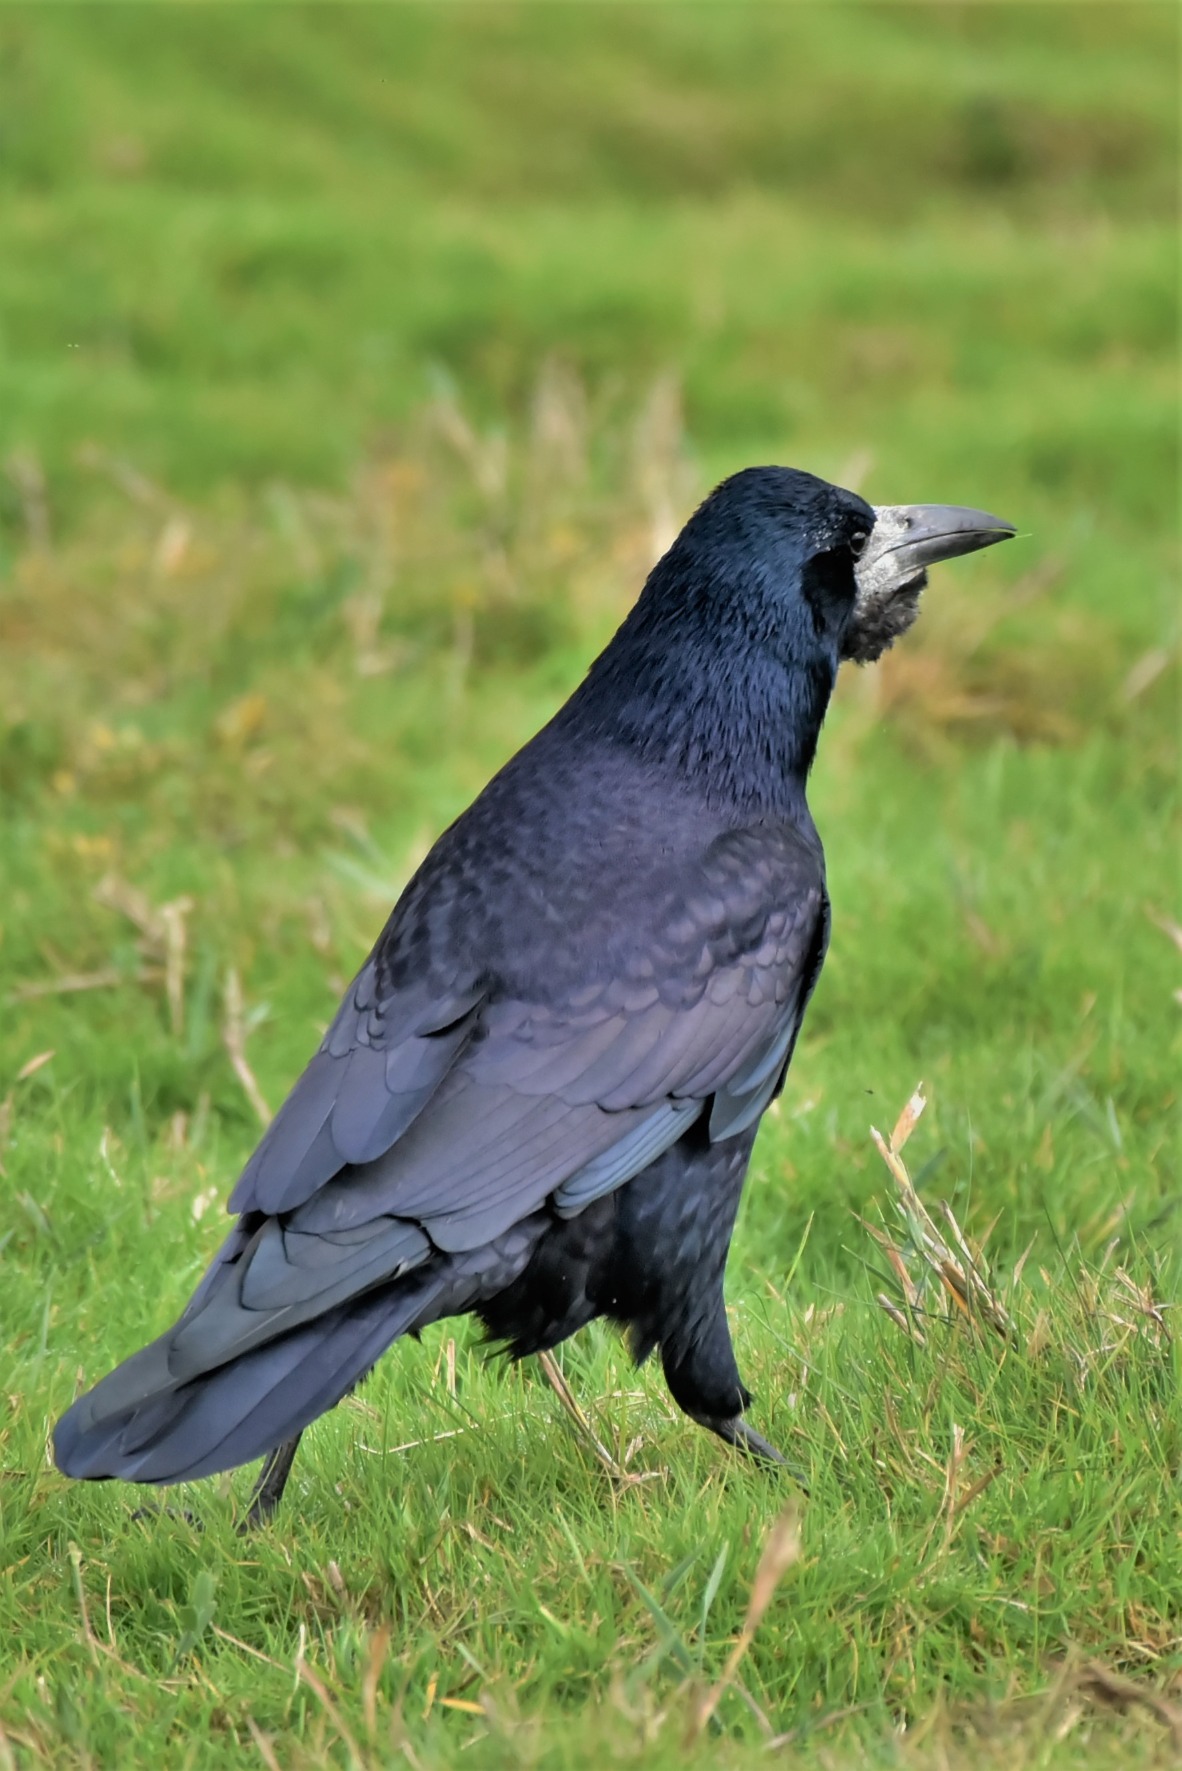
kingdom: Animalia
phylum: Chordata
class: Aves
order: Passeriformes
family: Corvidae
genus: Corvus
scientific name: Corvus frugilegus
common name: Råge
